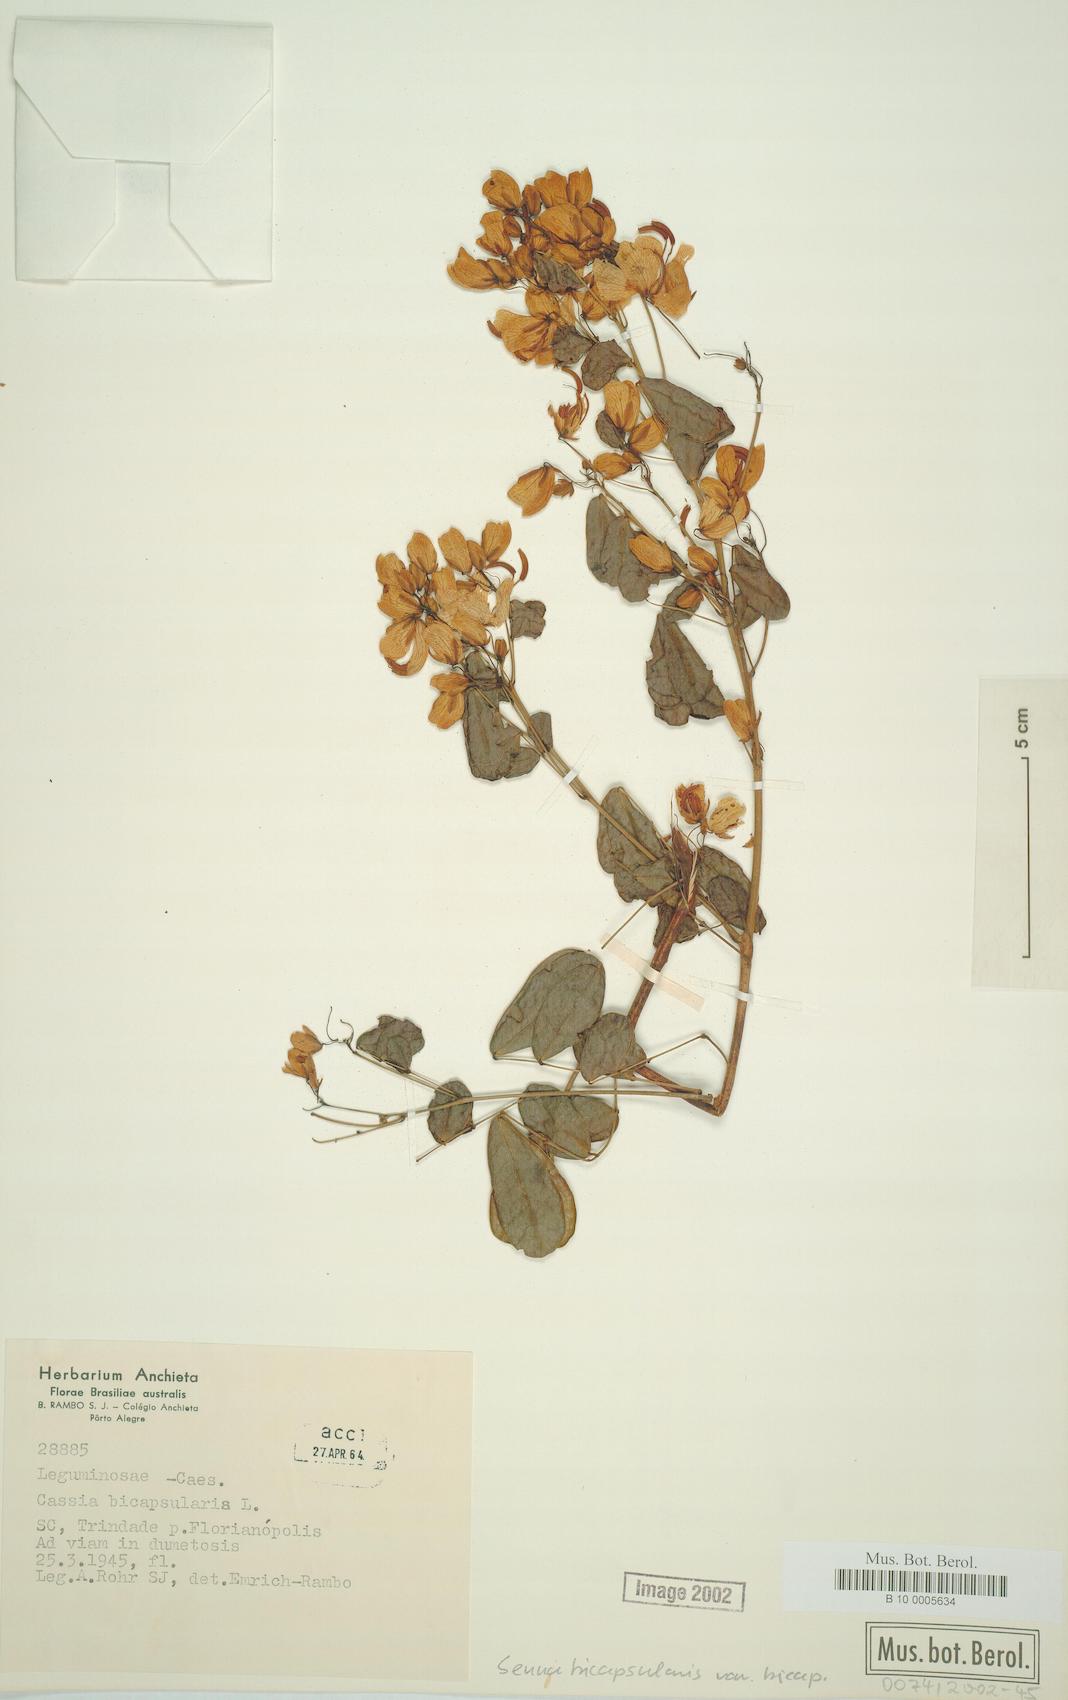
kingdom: Plantae
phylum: Tracheophyta
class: Magnoliopsida
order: Fabales
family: Fabaceae
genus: Senna
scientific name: Senna bicapsularis
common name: Christmasbush
